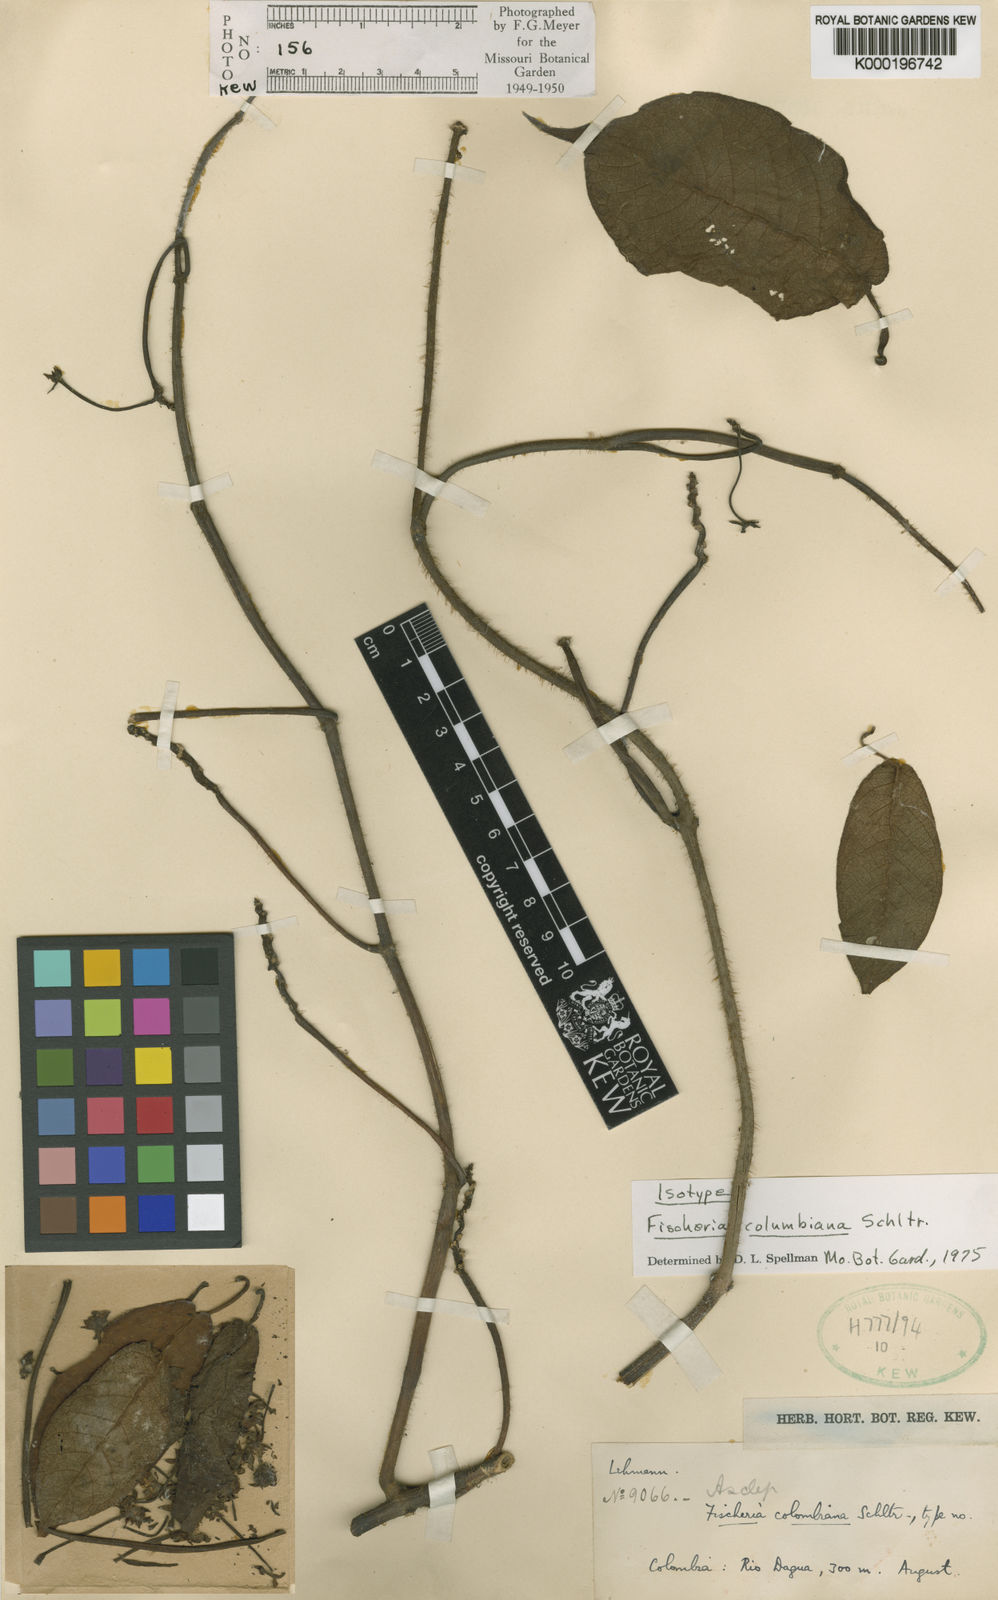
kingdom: Plantae
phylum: Tracheophyta
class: Magnoliopsida
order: Gentianales
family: Apocynaceae
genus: Fischeria
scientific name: Fischeria scandens
